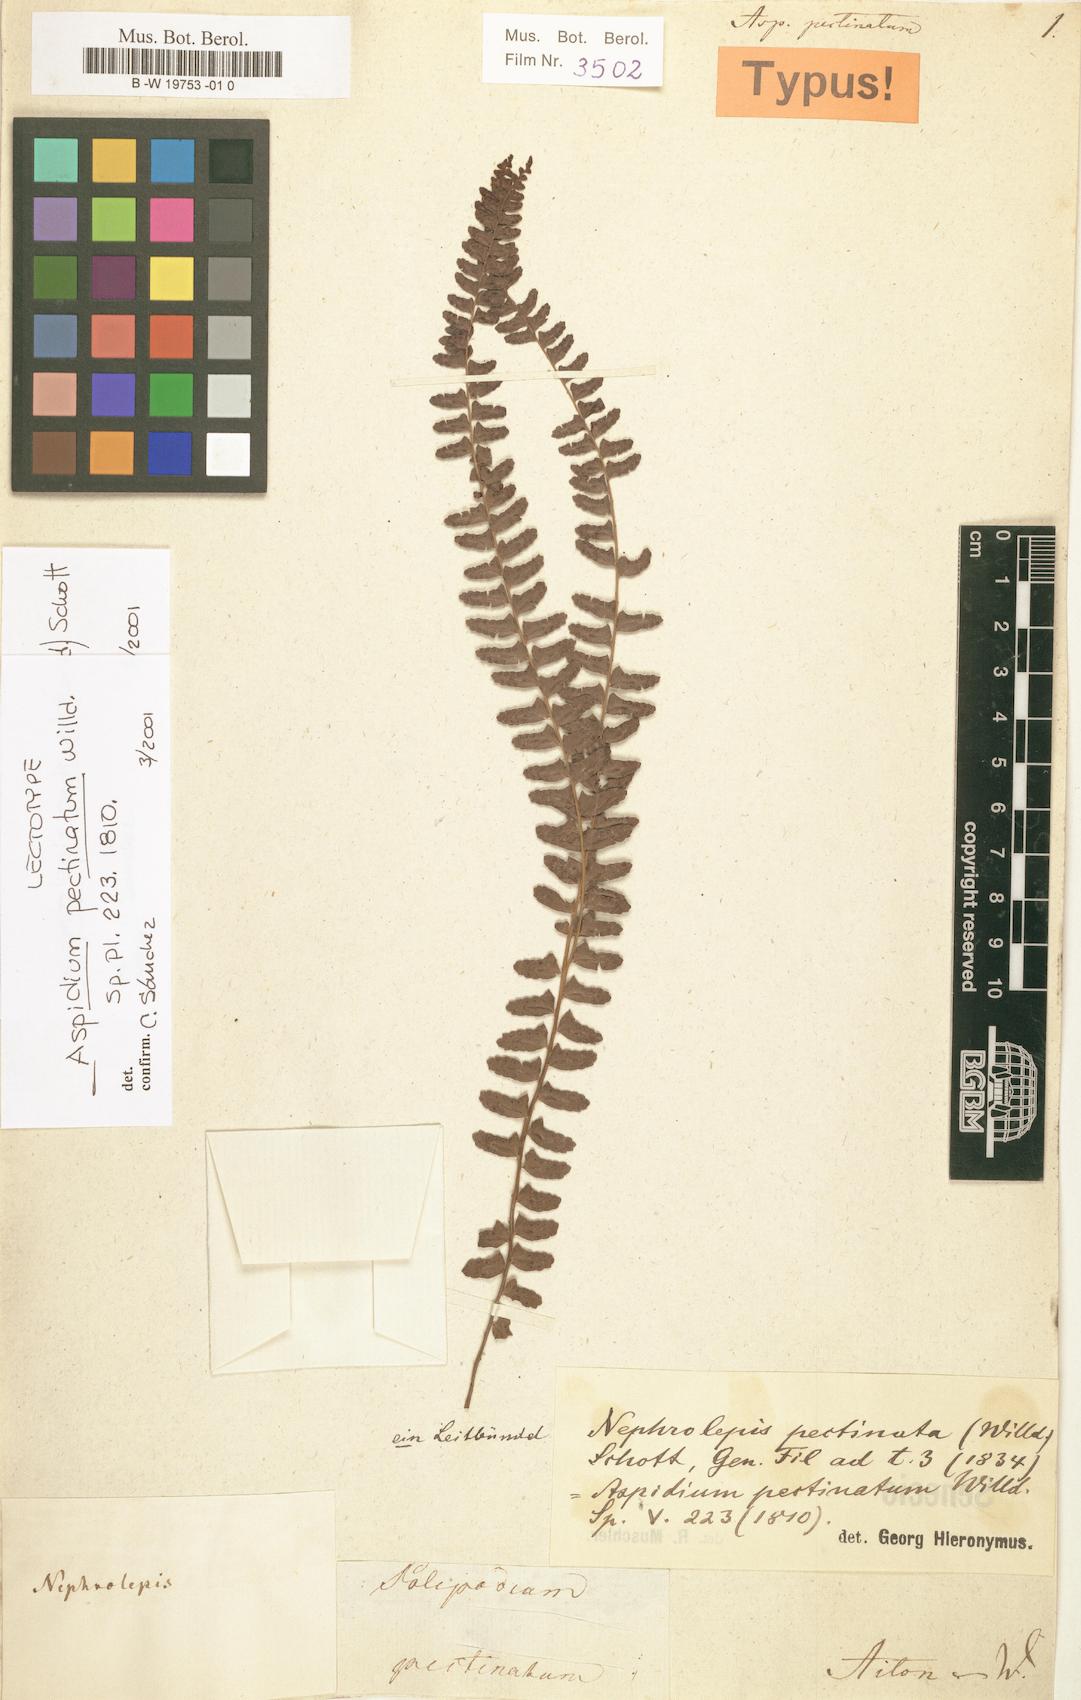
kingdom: Plantae
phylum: Tracheophyta
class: Polypodiopsida
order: Polypodiales
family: Nephrolepidaceae
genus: Nephrolepis
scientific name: Nephrolepis pectinata
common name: Basket fern
